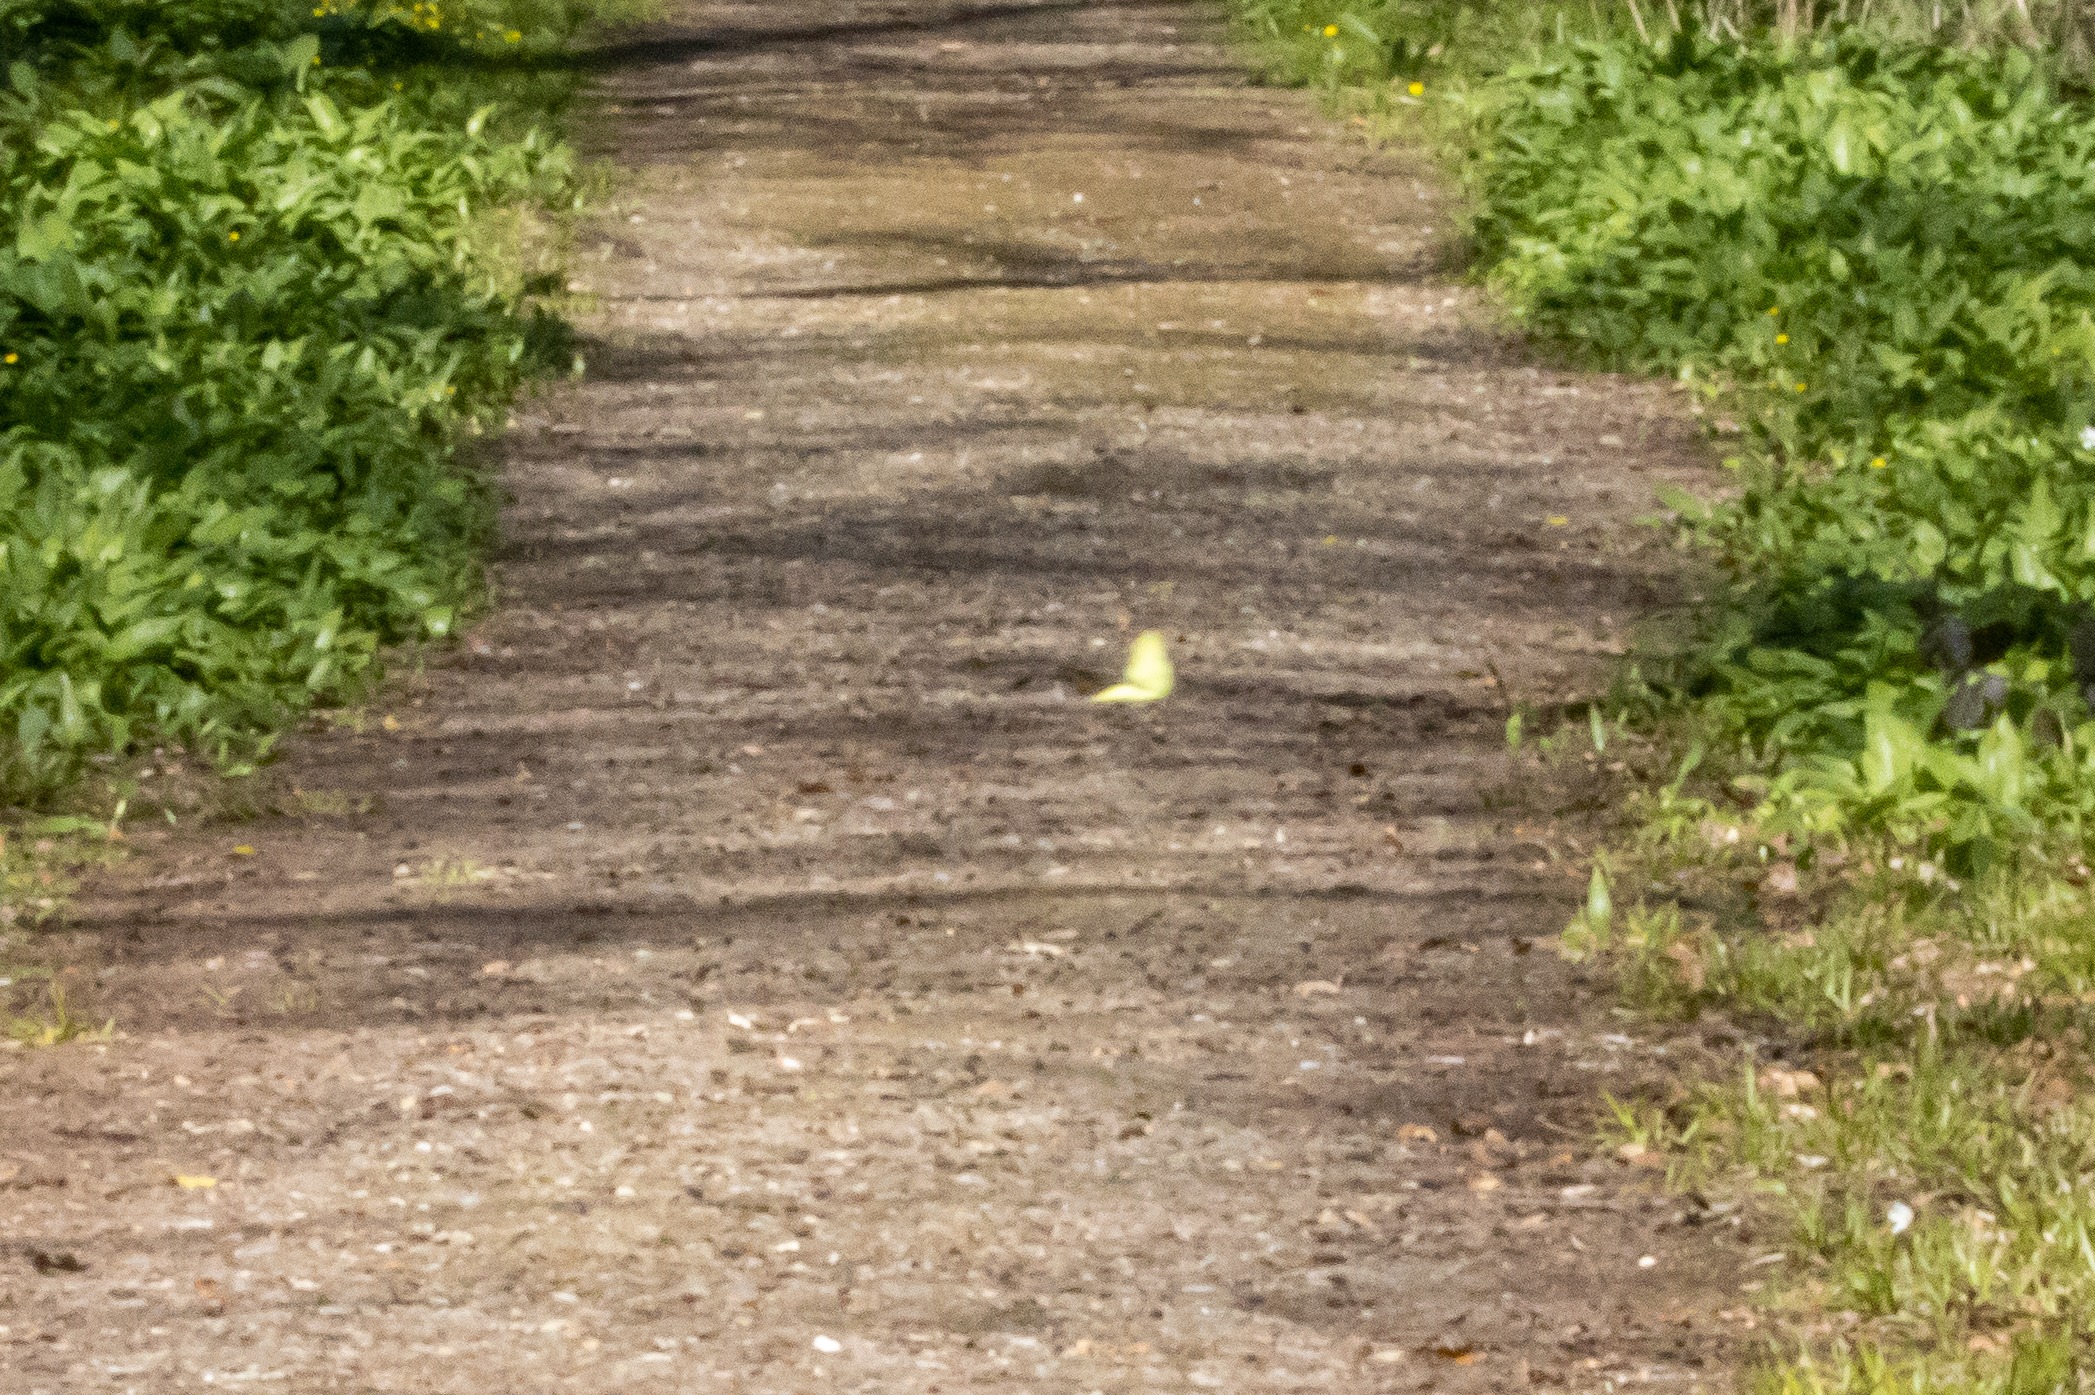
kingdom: Animalia
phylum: Arthropoda
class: Insecta
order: Lepidoptera
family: Pieridae
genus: Gonepteryx
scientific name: Gonepteryx rhamni
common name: Citronsommerfugl
